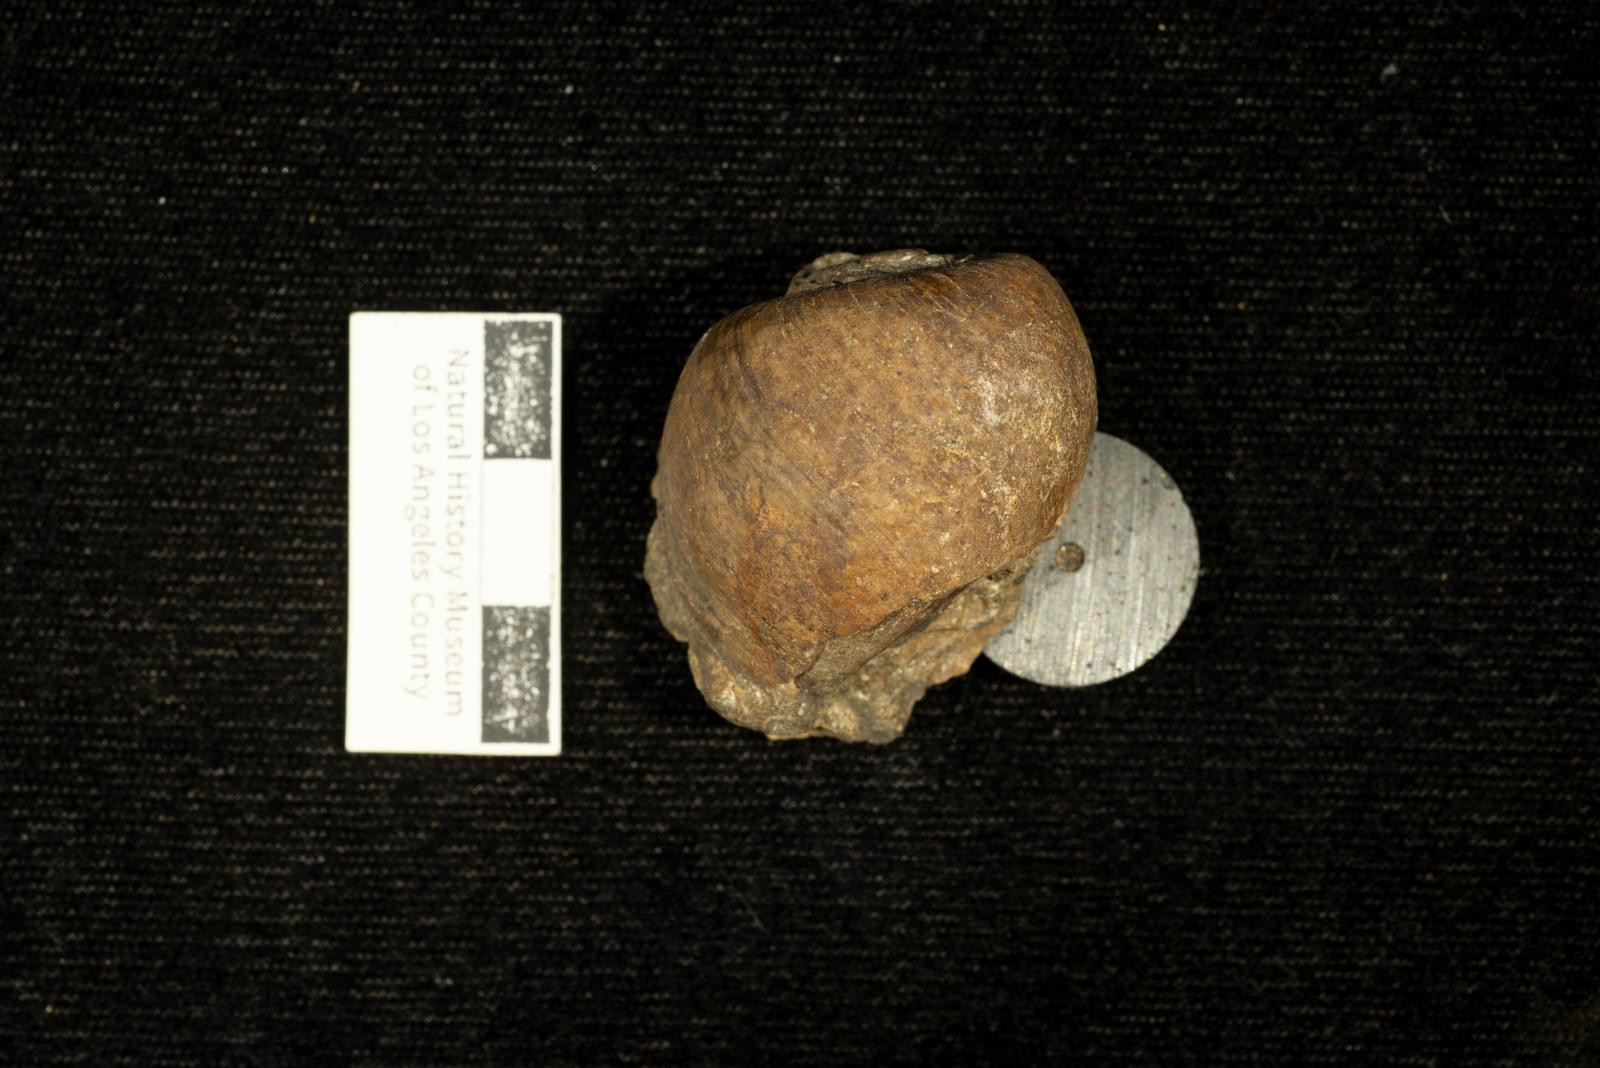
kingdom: Animalia
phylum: Mollusca
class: Gastropoda
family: Gyrodidae
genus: Gyrodes
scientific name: Gyrodes dowelli
